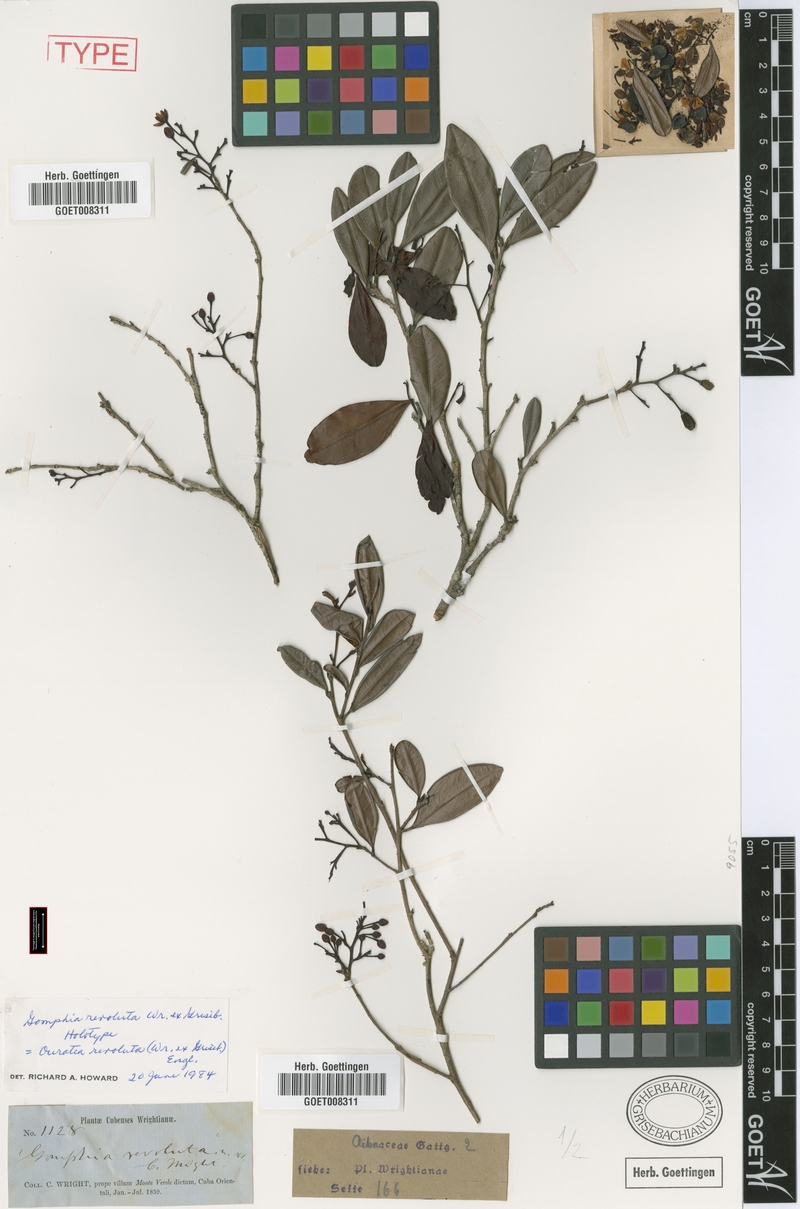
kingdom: Plantae
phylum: Tracheophyta
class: Magnoliopsida
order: Malpighiales
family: Ochnaceae
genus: Ouratea
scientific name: Ouratea revoluta
